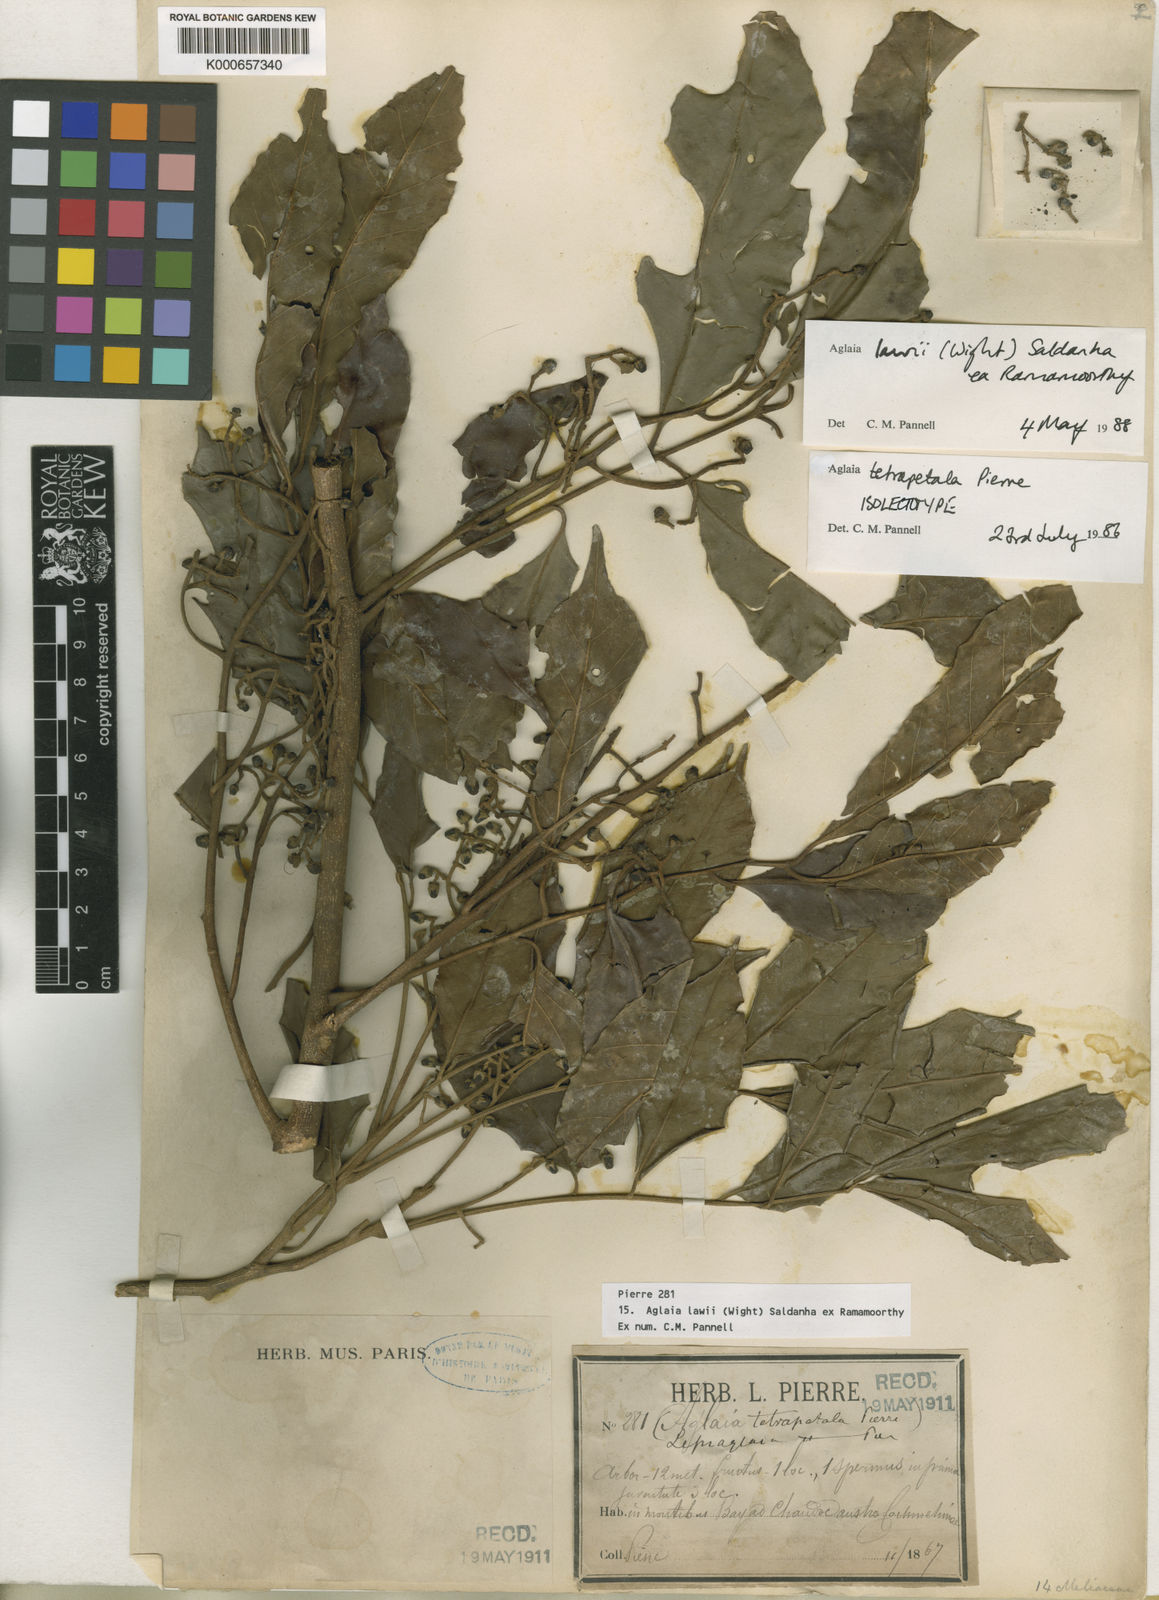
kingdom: Plantae
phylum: Tracheophyta
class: Magnoliopsida
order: Sapindales
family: Meliaceae
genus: Aglaia
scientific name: Aglaia lawii
